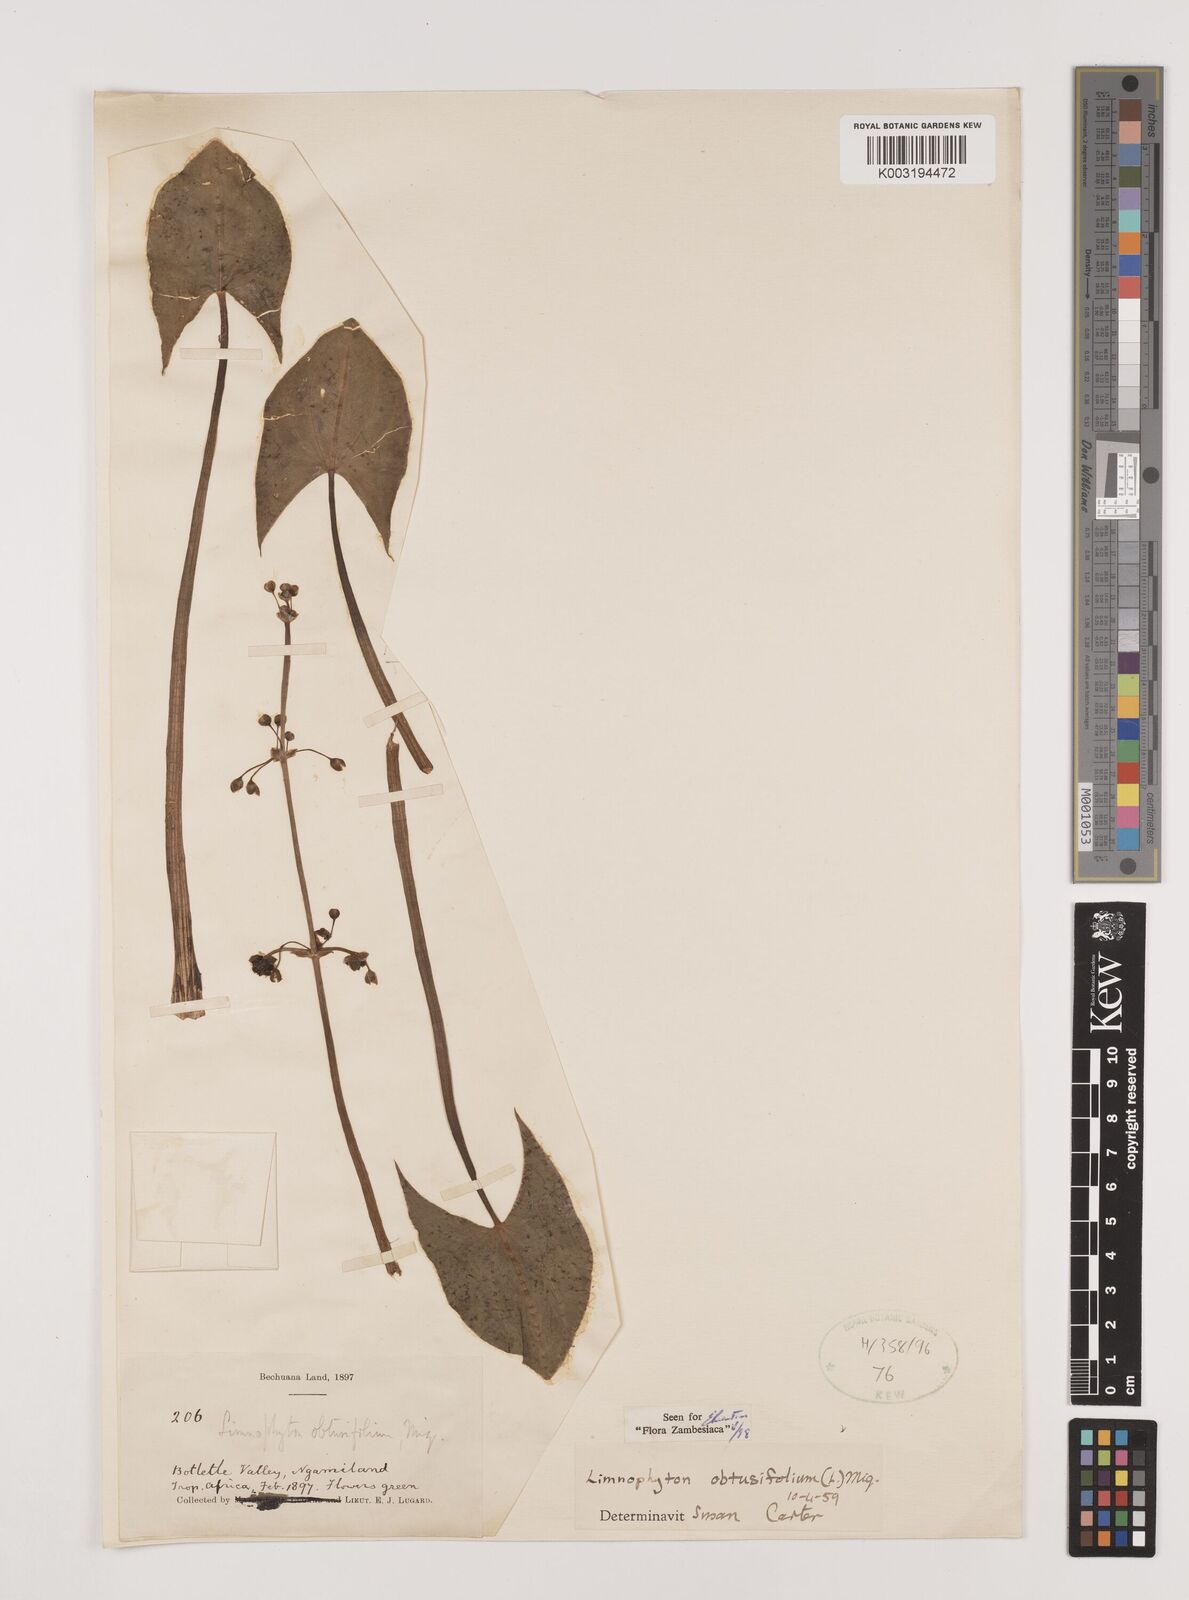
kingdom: Plantae
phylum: Tracheophyta
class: Liliopsida
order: Alismatales
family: Alismataceae
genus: Limnophyton
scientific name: Limnophyton obtusifolium
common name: Arrow head
